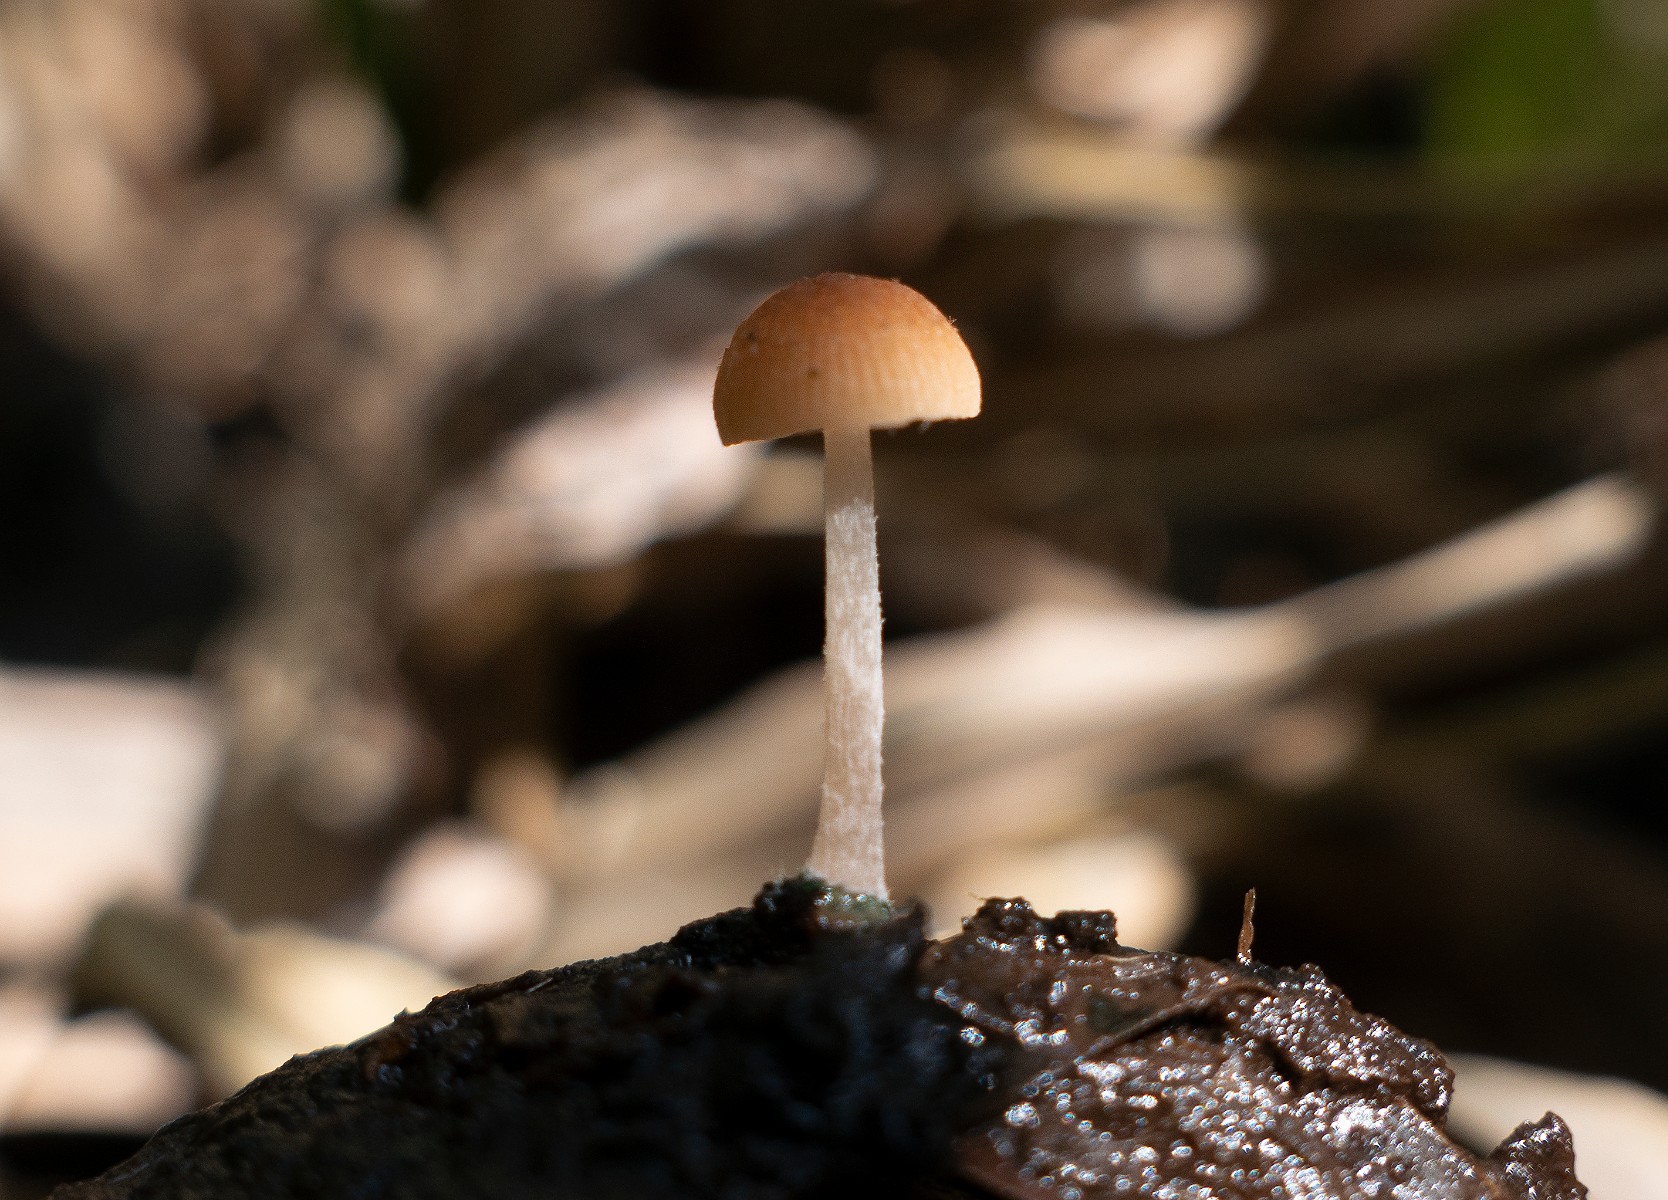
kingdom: Fungi
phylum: Basidiomycota
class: Agaricomycetes
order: Agaricales
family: Psathyrellaceae
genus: Candolleomyces
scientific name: Candolleomyces typhae
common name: dunhammer-mørkhat
